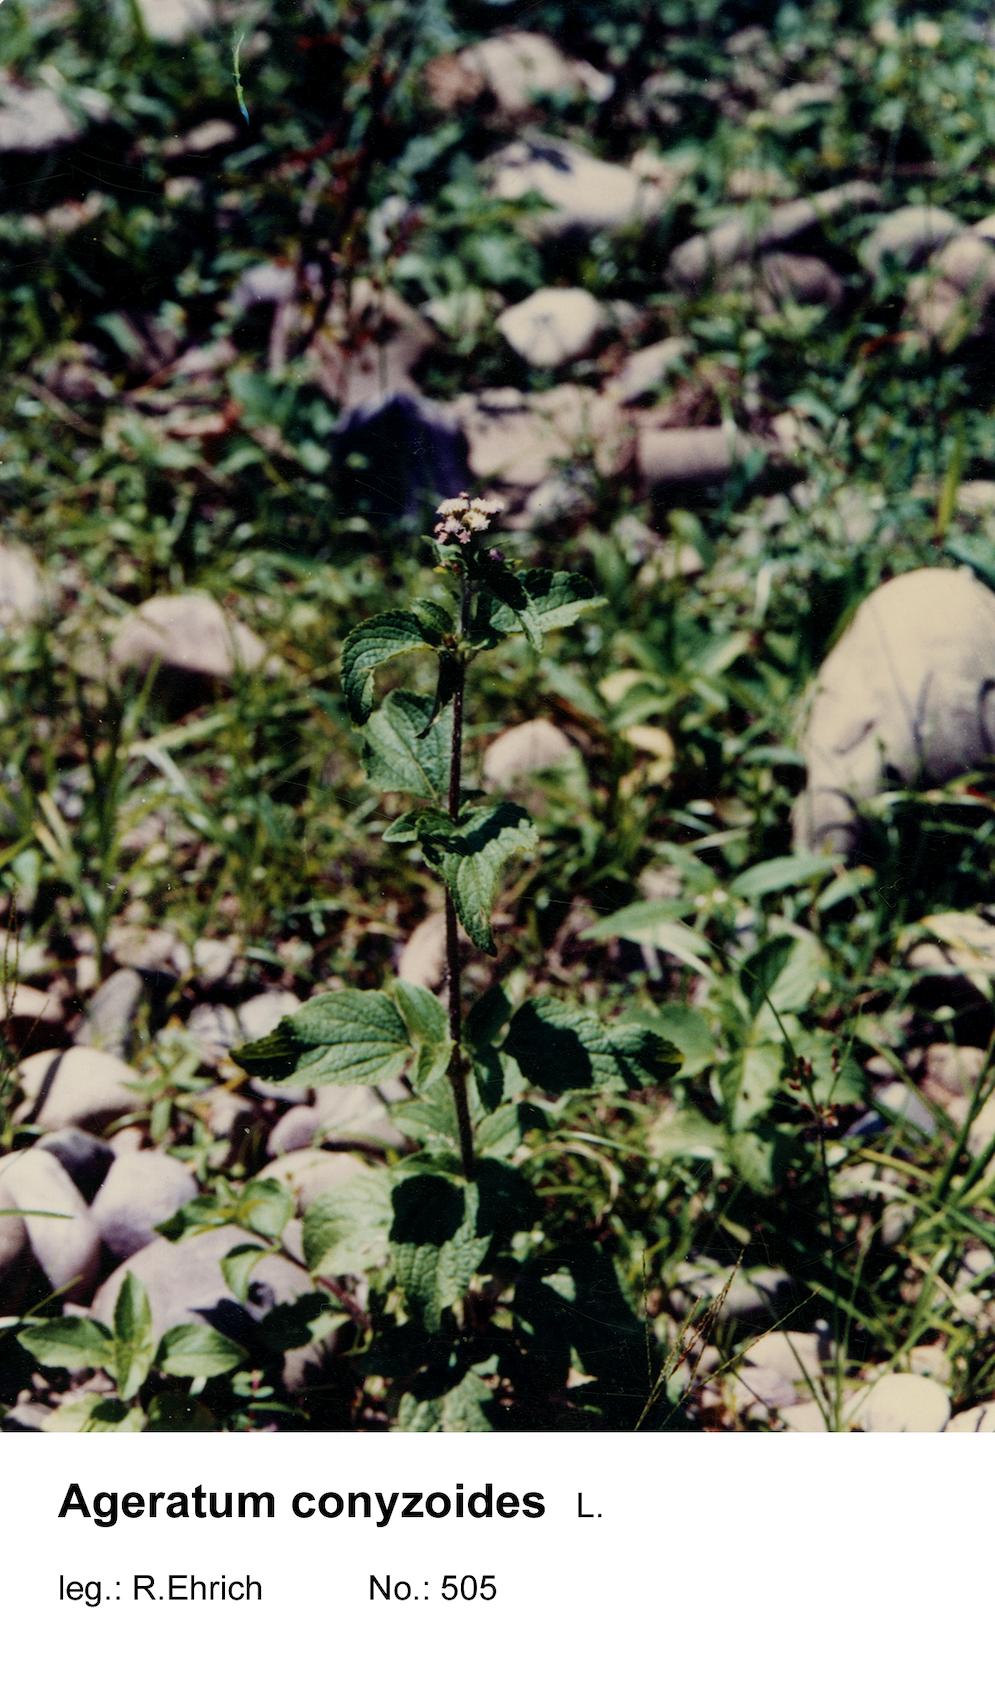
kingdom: Plantae
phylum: Tracheophyta
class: Magnoliopsida
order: Asterales
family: Asteraceae
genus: Ageratum
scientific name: Ageratum conyzoides
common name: Tropical whiteweed
